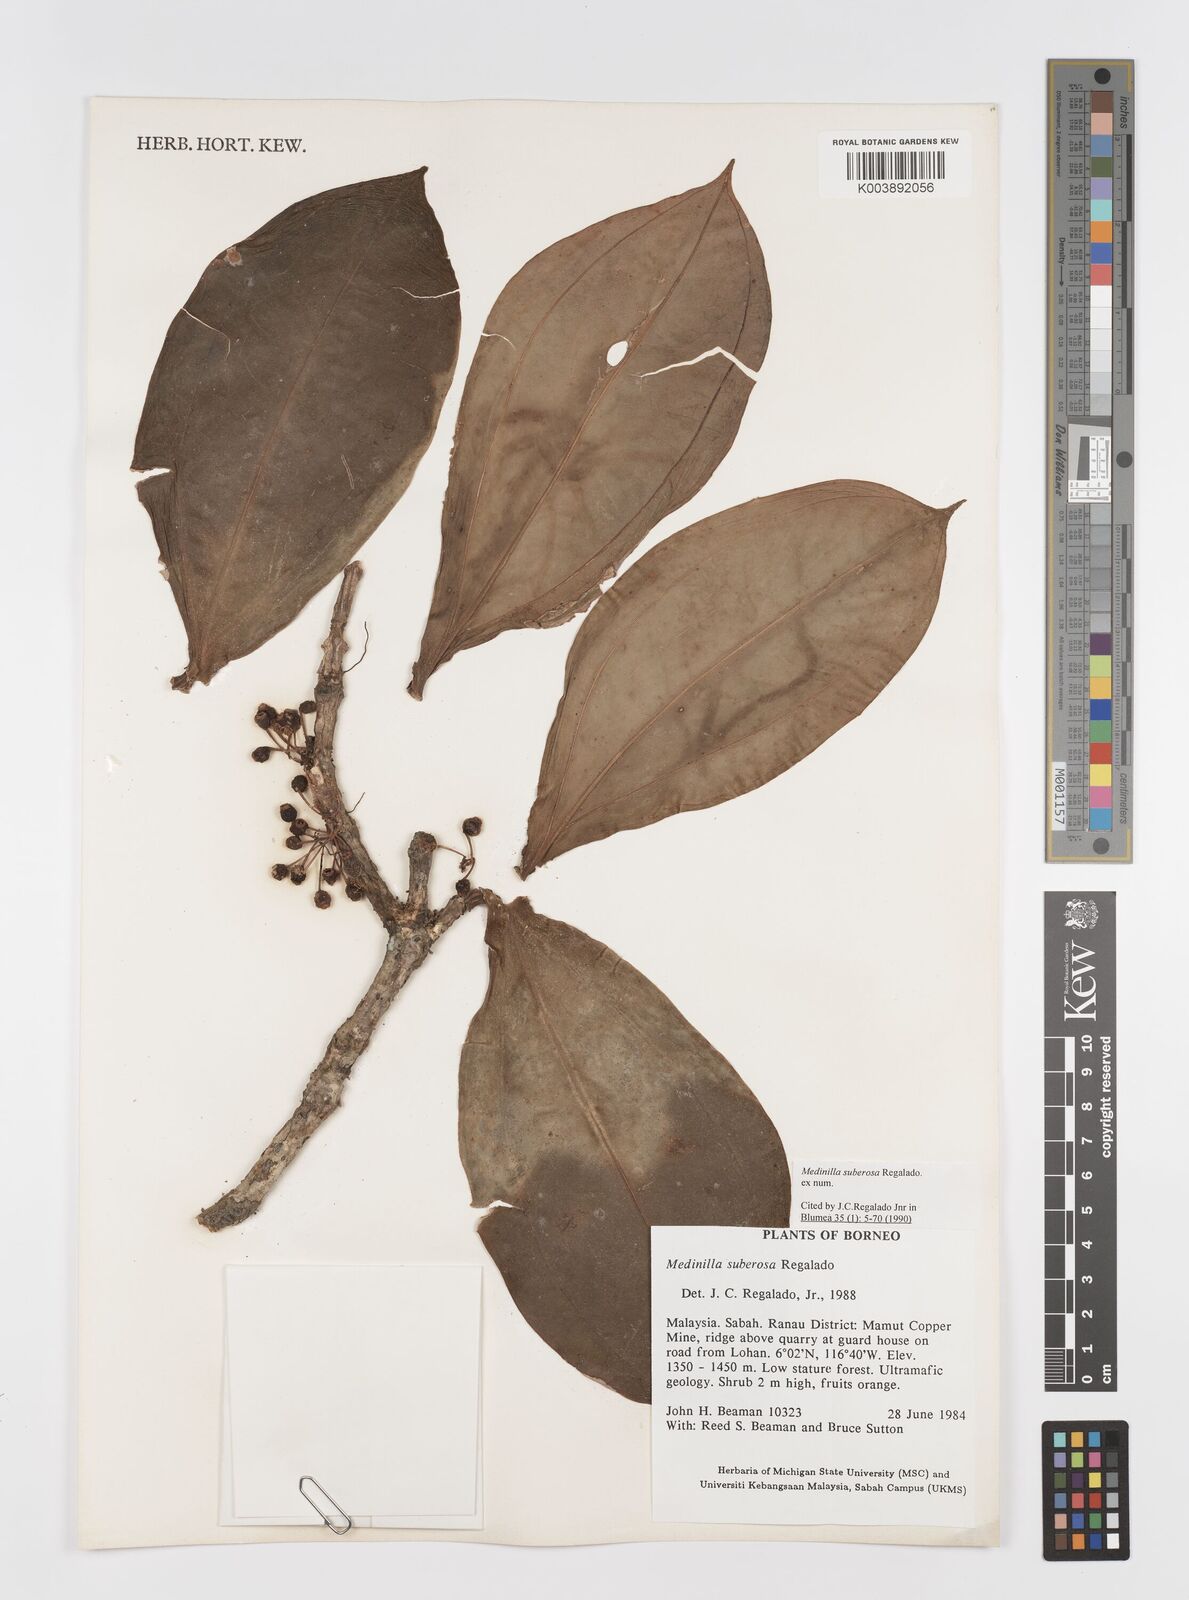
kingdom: Plantae
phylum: Tracheophyta
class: Magnoliopsida
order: Myrtales
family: Melastomataceae
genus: Medinilla
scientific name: Medinilla suberosa
